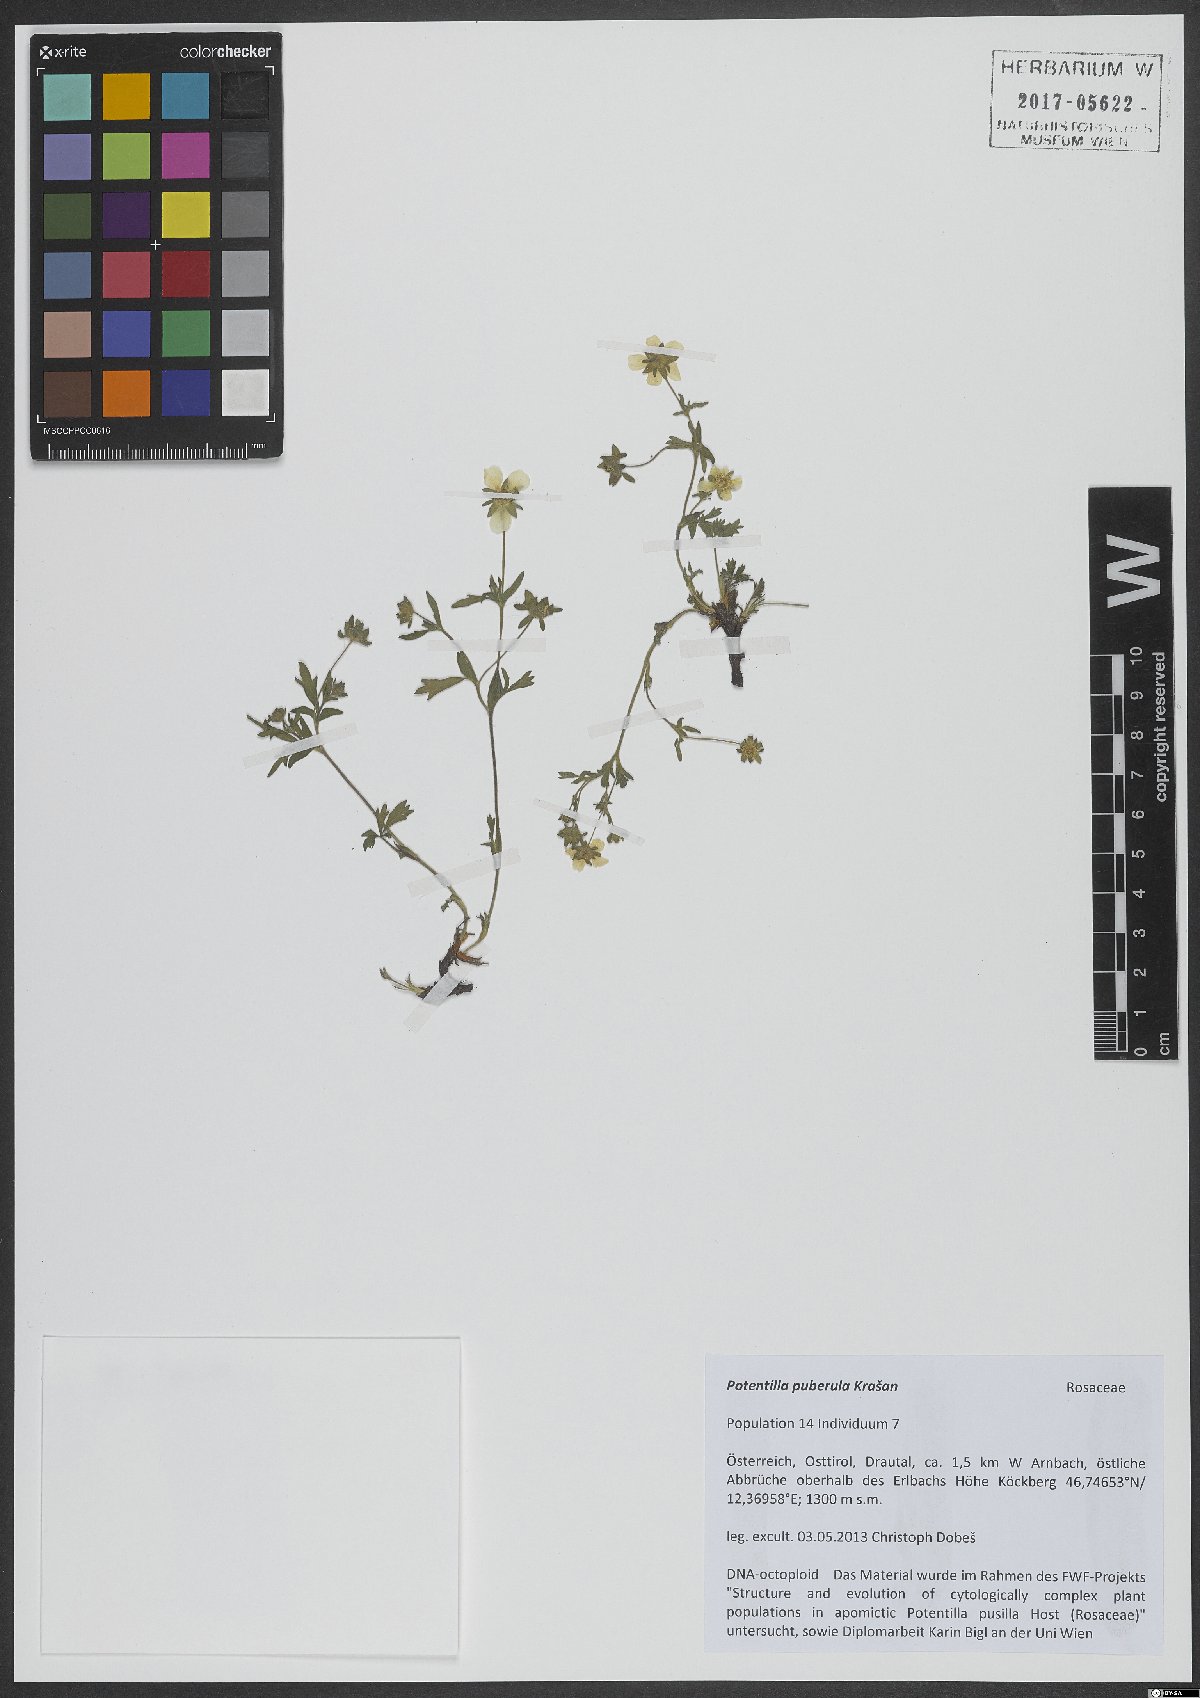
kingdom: Plantae
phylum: Tracheophyta
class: Magnoliopsida
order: Rosales
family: Rosaceae
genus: Potentilla
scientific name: Potentilla pusilla
